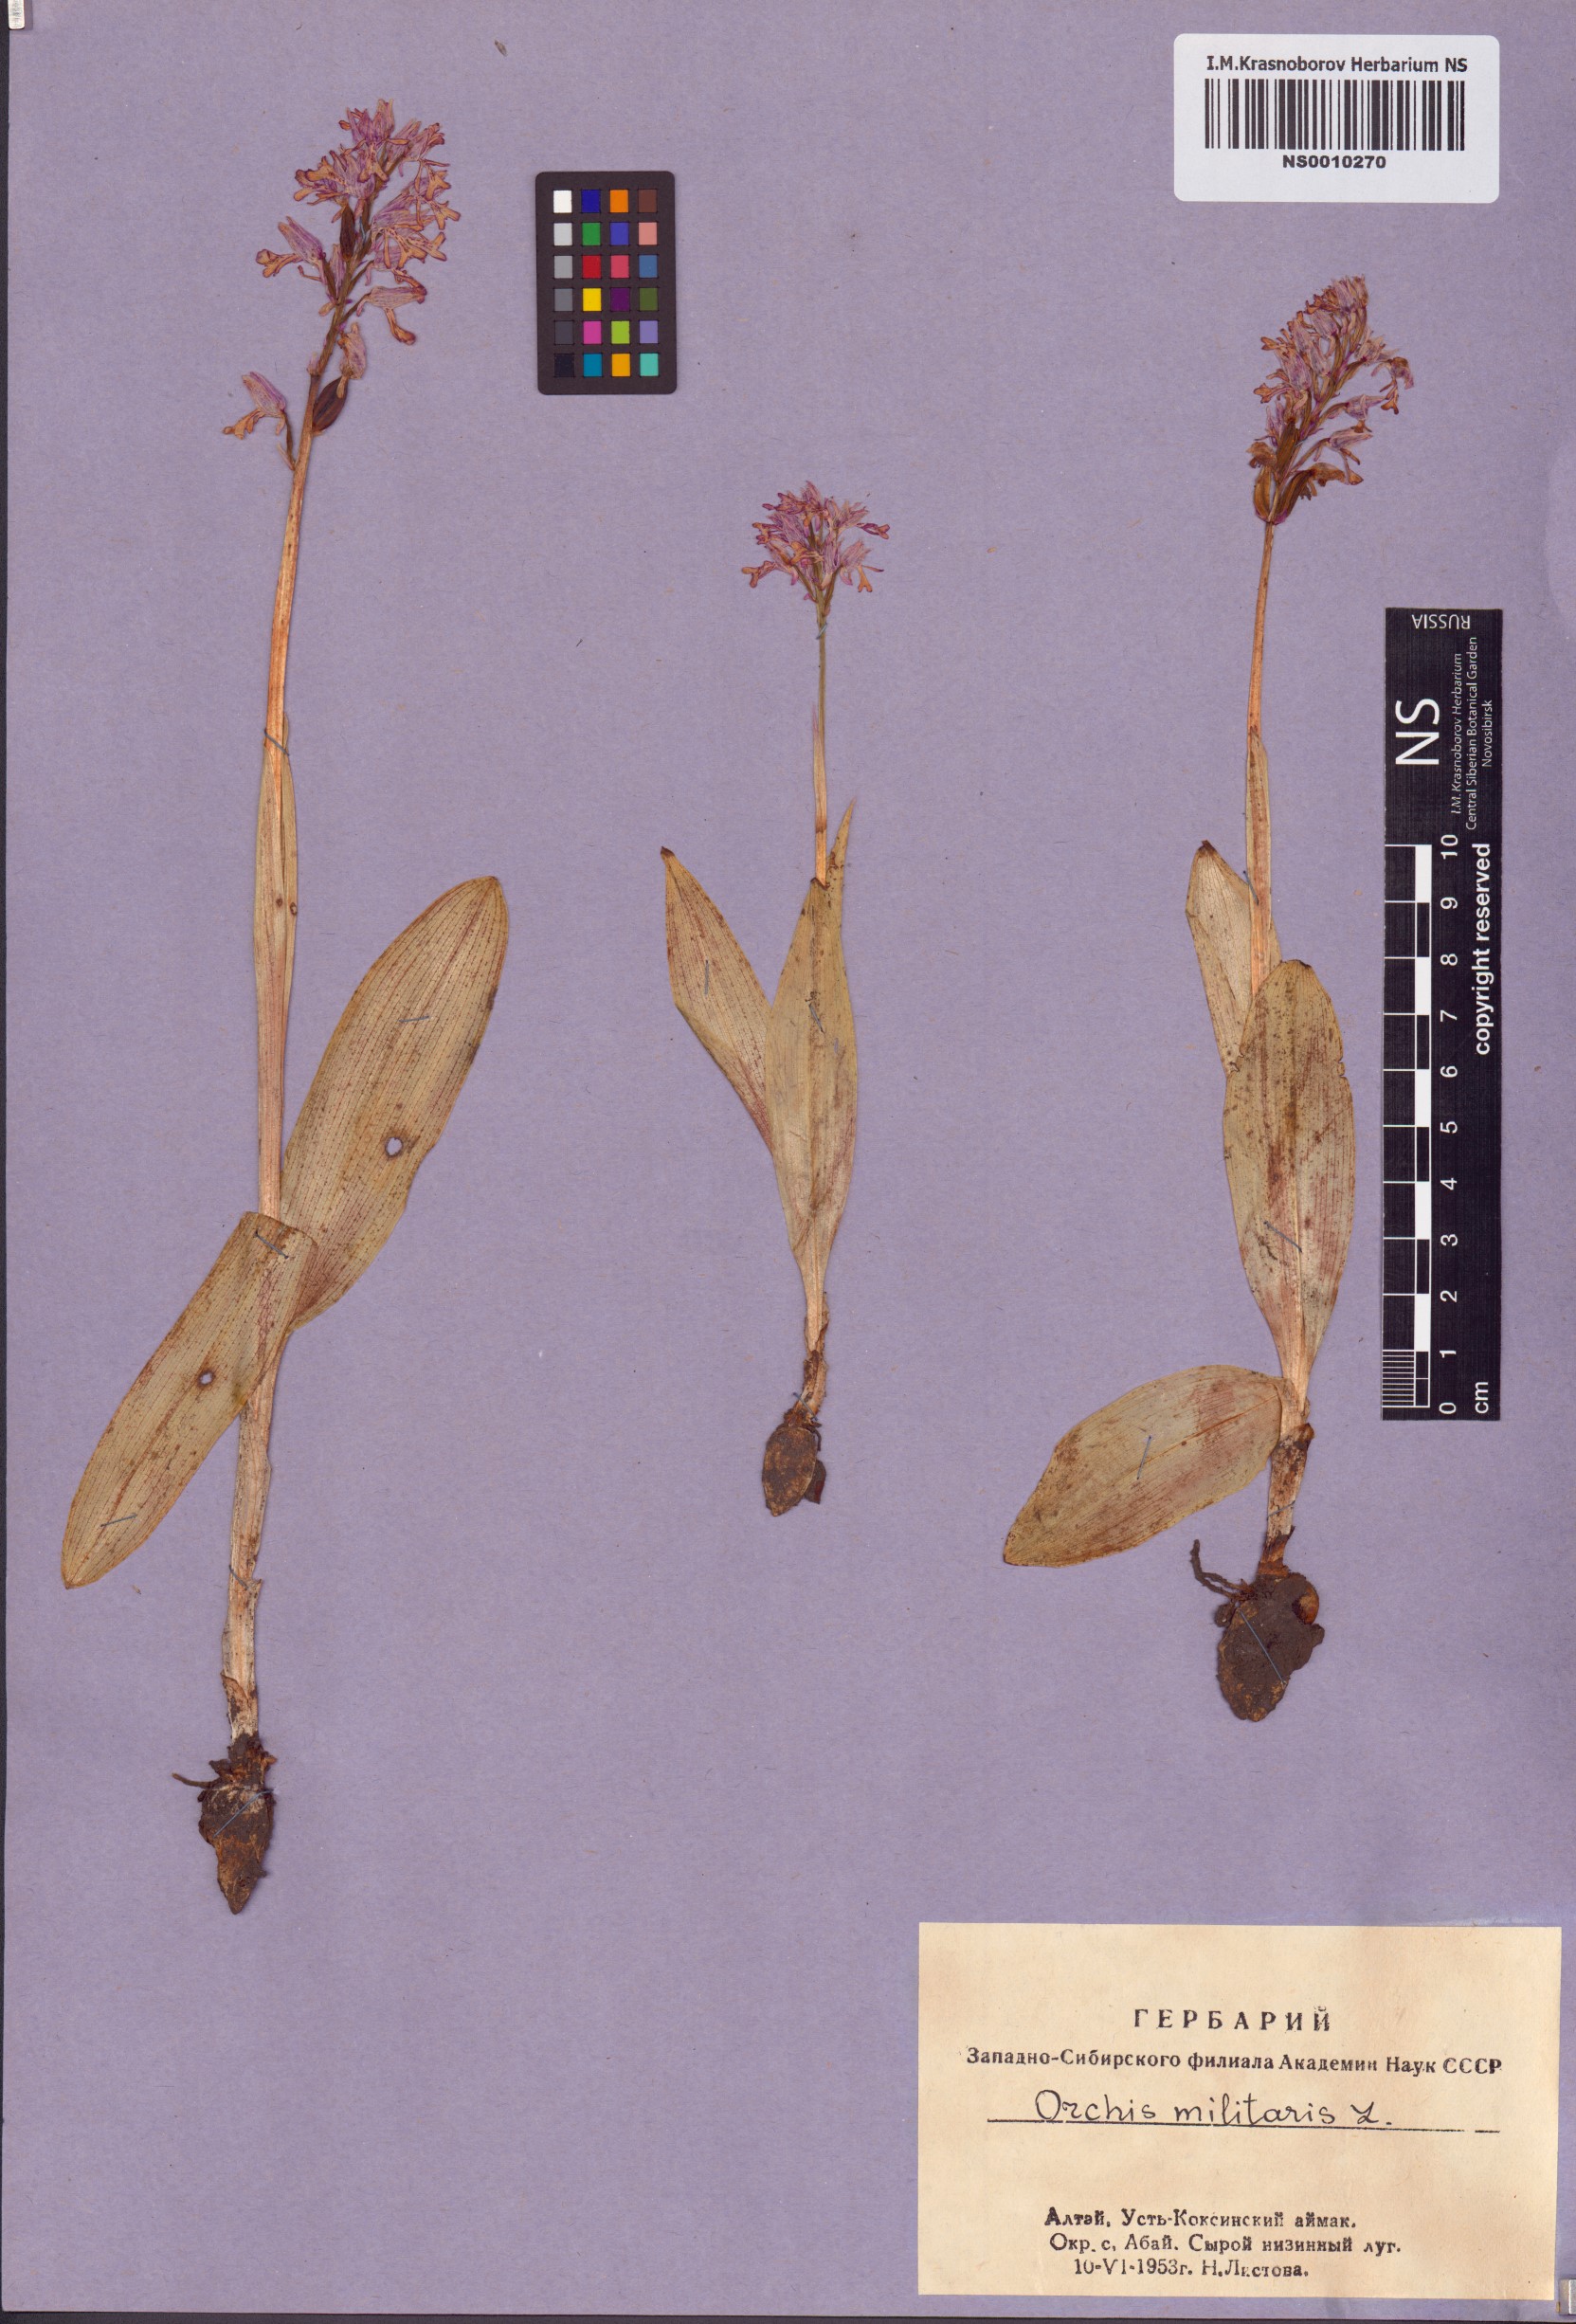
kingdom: Plantae
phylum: Tracheophyta
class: Liliopsida
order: Asparagales
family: Orchidaceae
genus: Orchis
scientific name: Orchis militaris
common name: Military orchid
